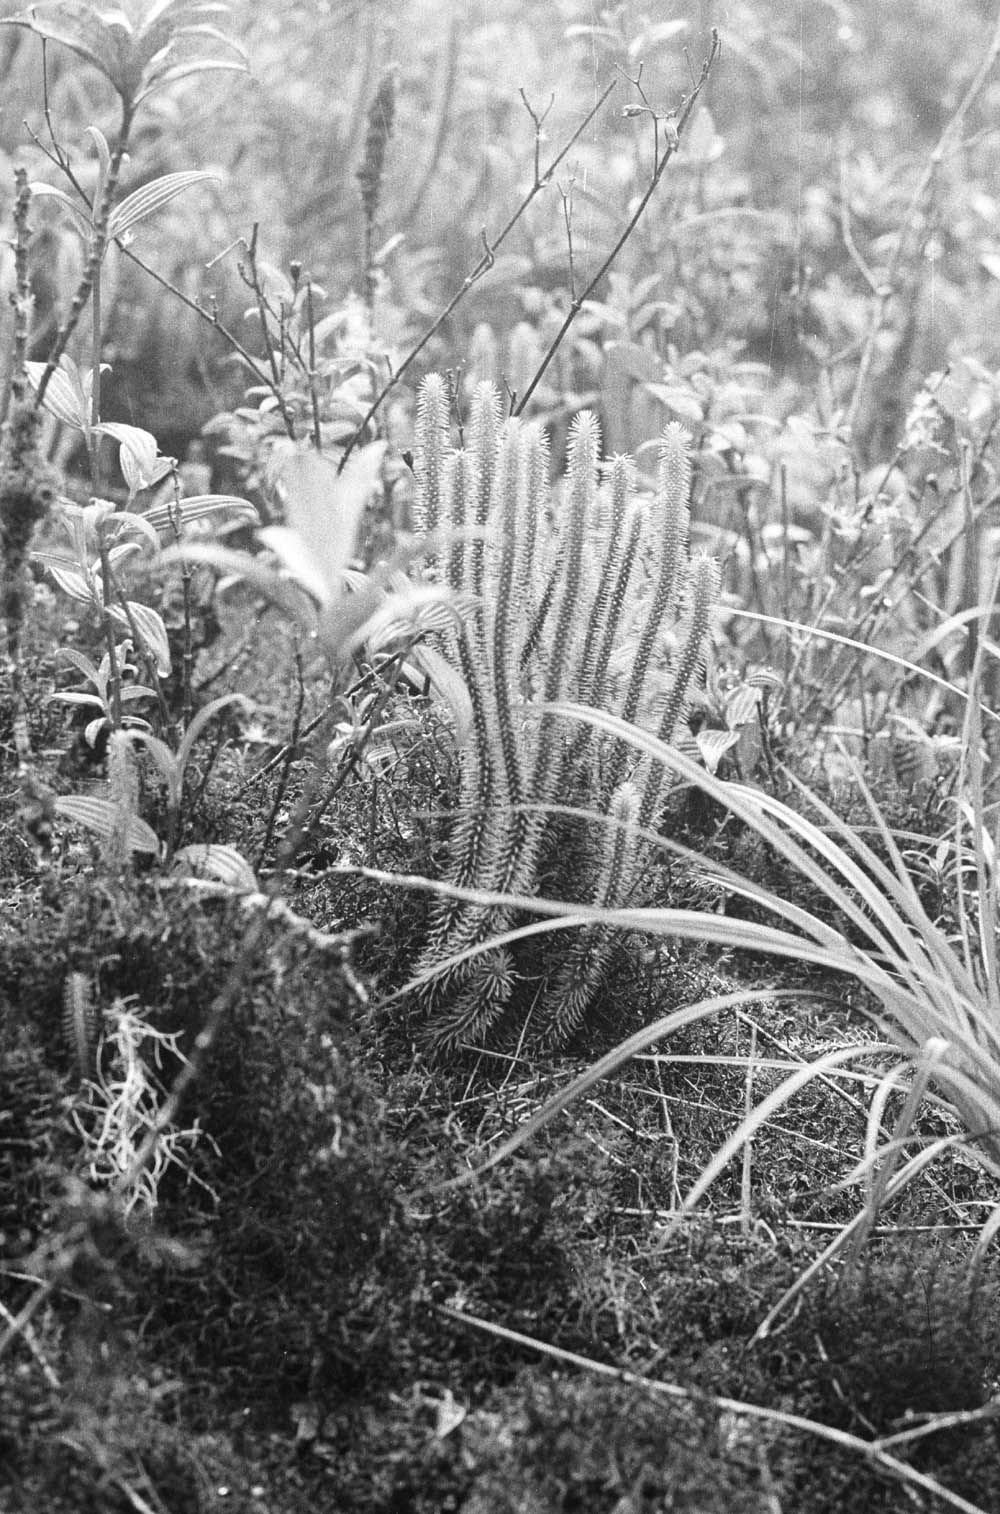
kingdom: Plantae
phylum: Tracheophyta
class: Lycopodiopsida
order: Lycopodiales
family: Lycopodiaceae
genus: Phlegmariurus
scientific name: Phlegmariurus reflexus
